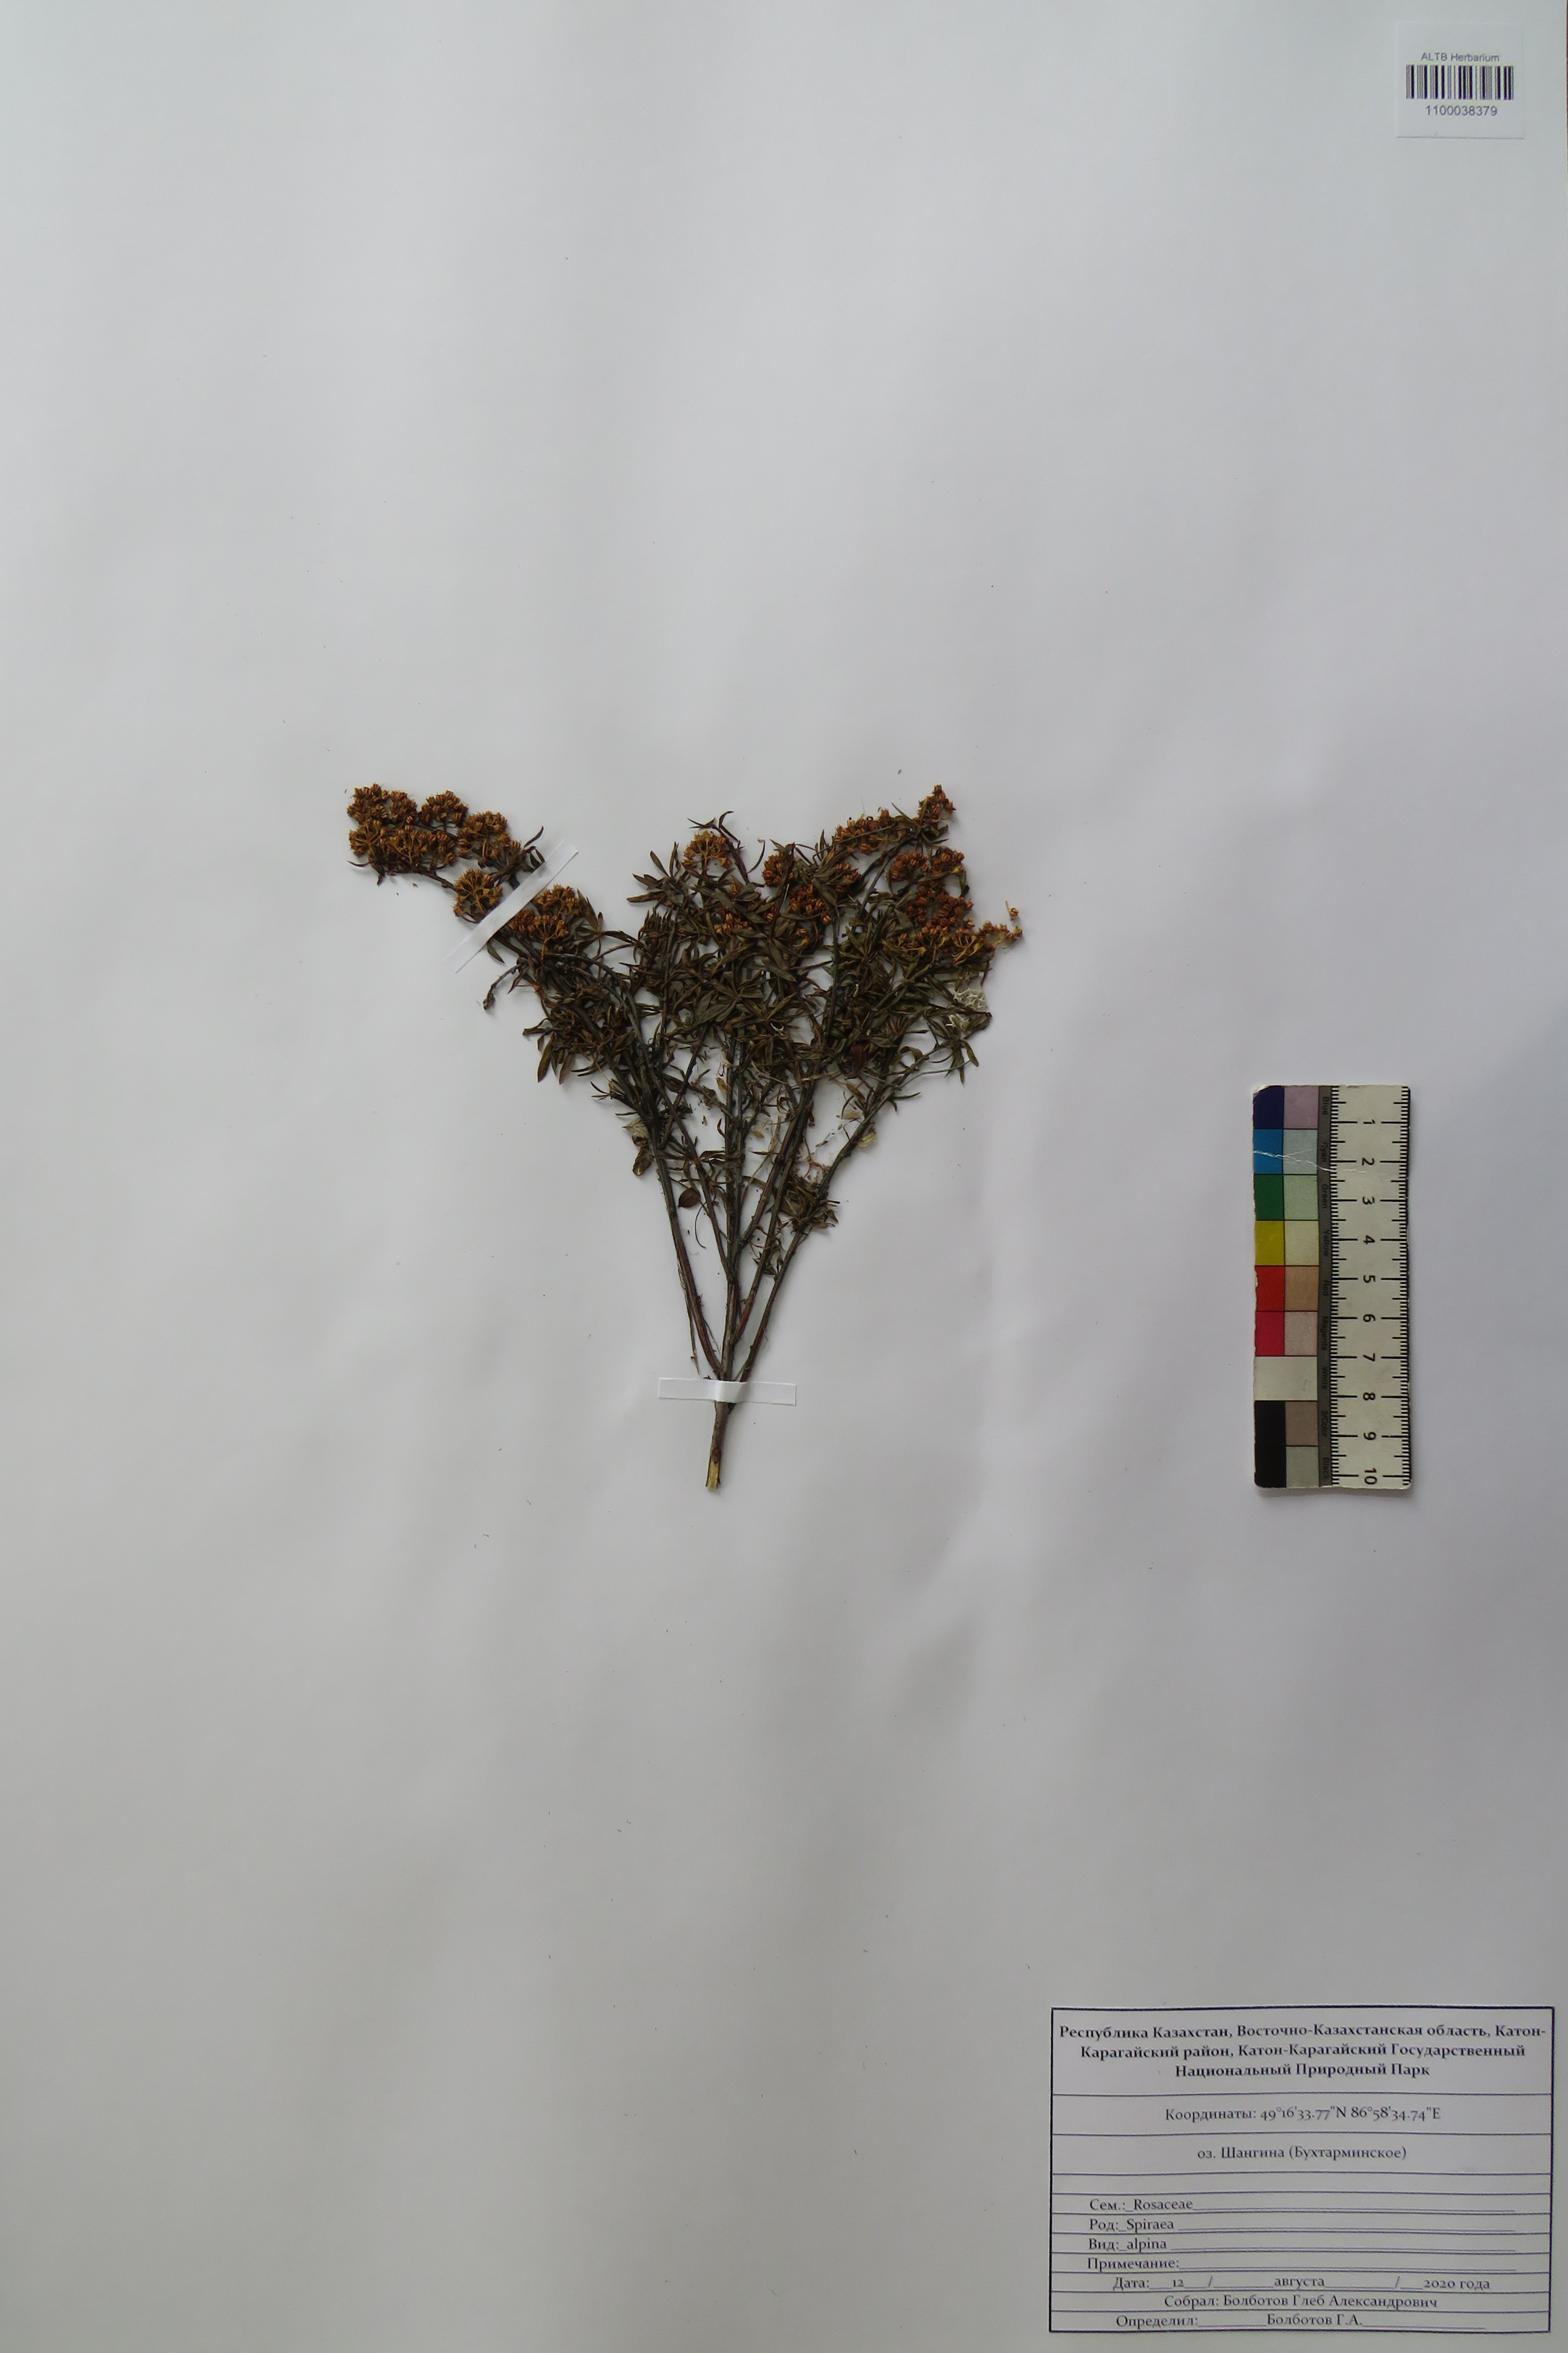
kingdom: Plantae
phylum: Tracheophyta
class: Magnoliopsida
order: Rosales
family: Rosaceae
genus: Spiraea
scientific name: Spiraea alpina
